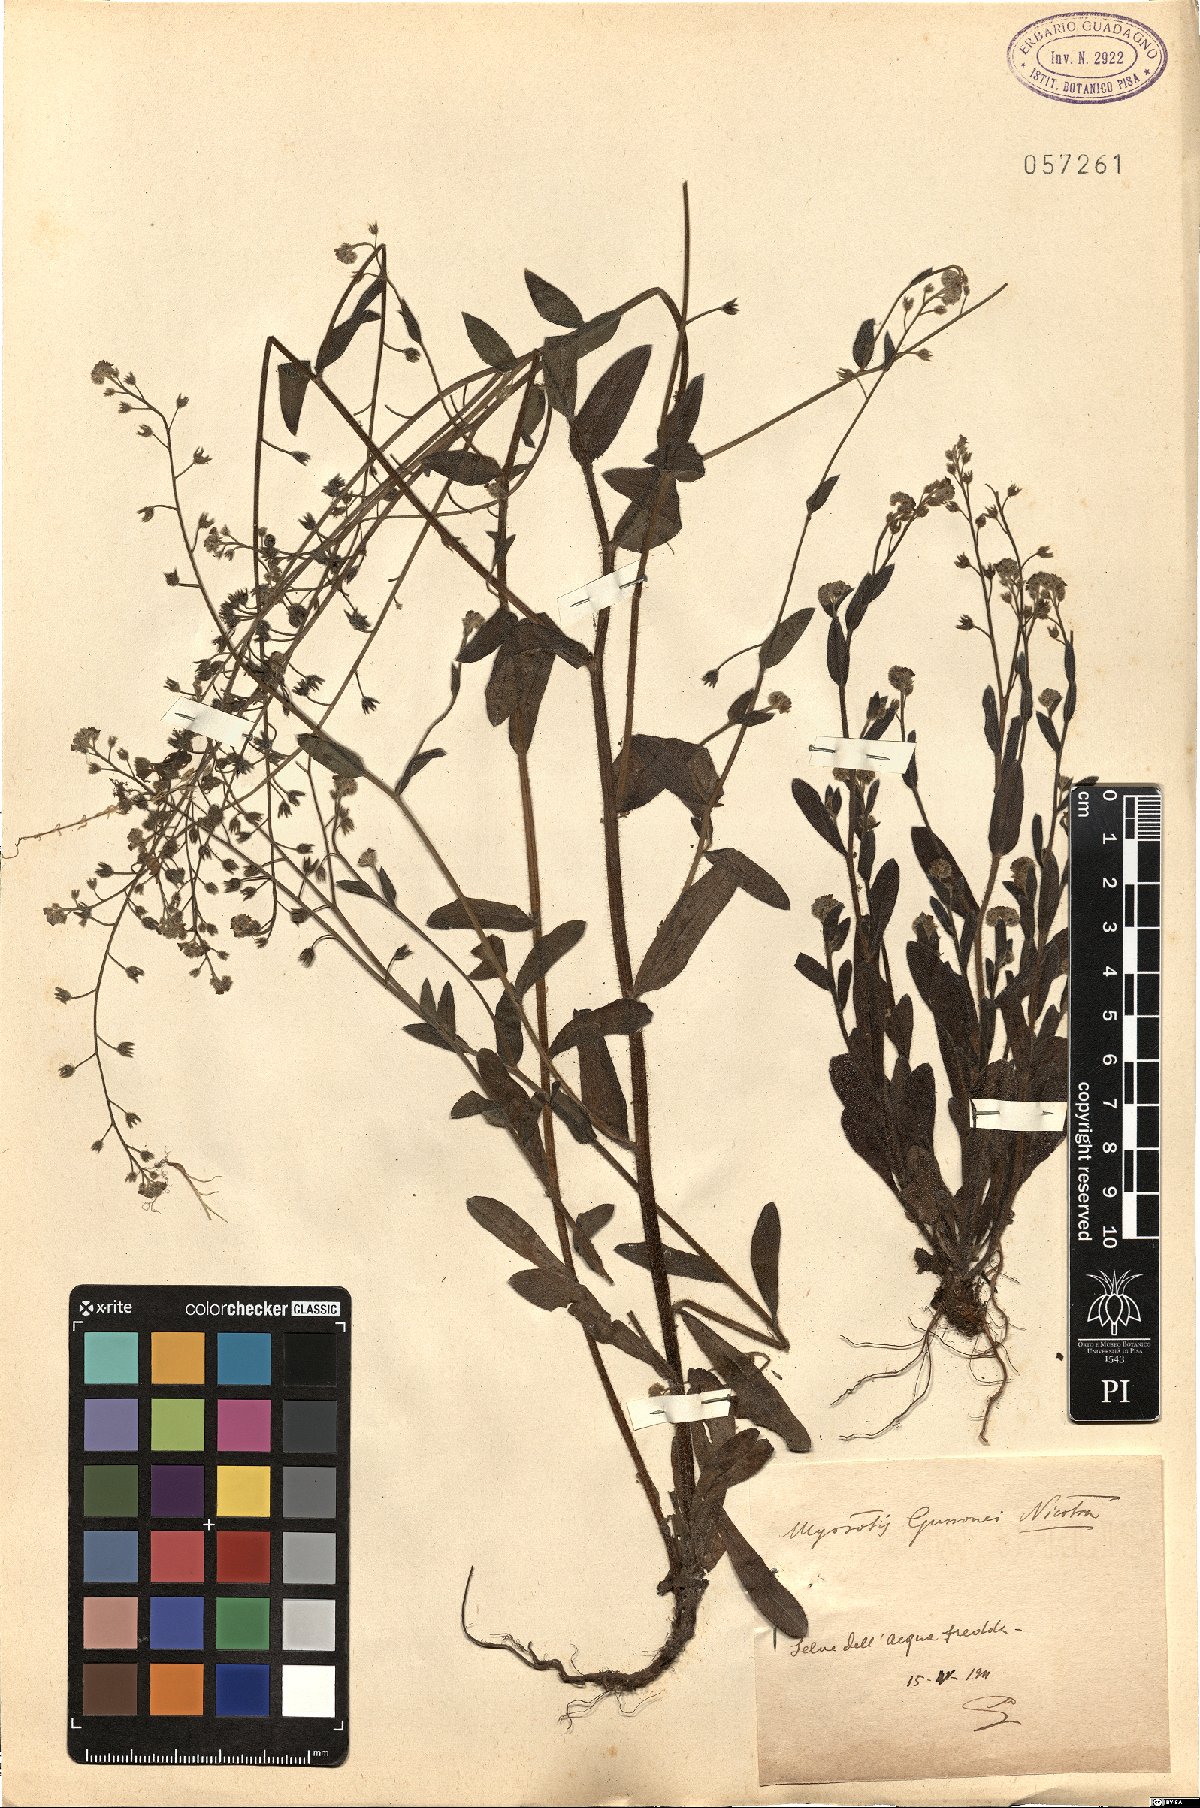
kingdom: Plantae
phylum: Tracheophyta
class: Magnoliopsida
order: Boraginales
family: Boraginaceae
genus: Myosotis
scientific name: Myosotis sicula
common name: Jersey forget-me-not
